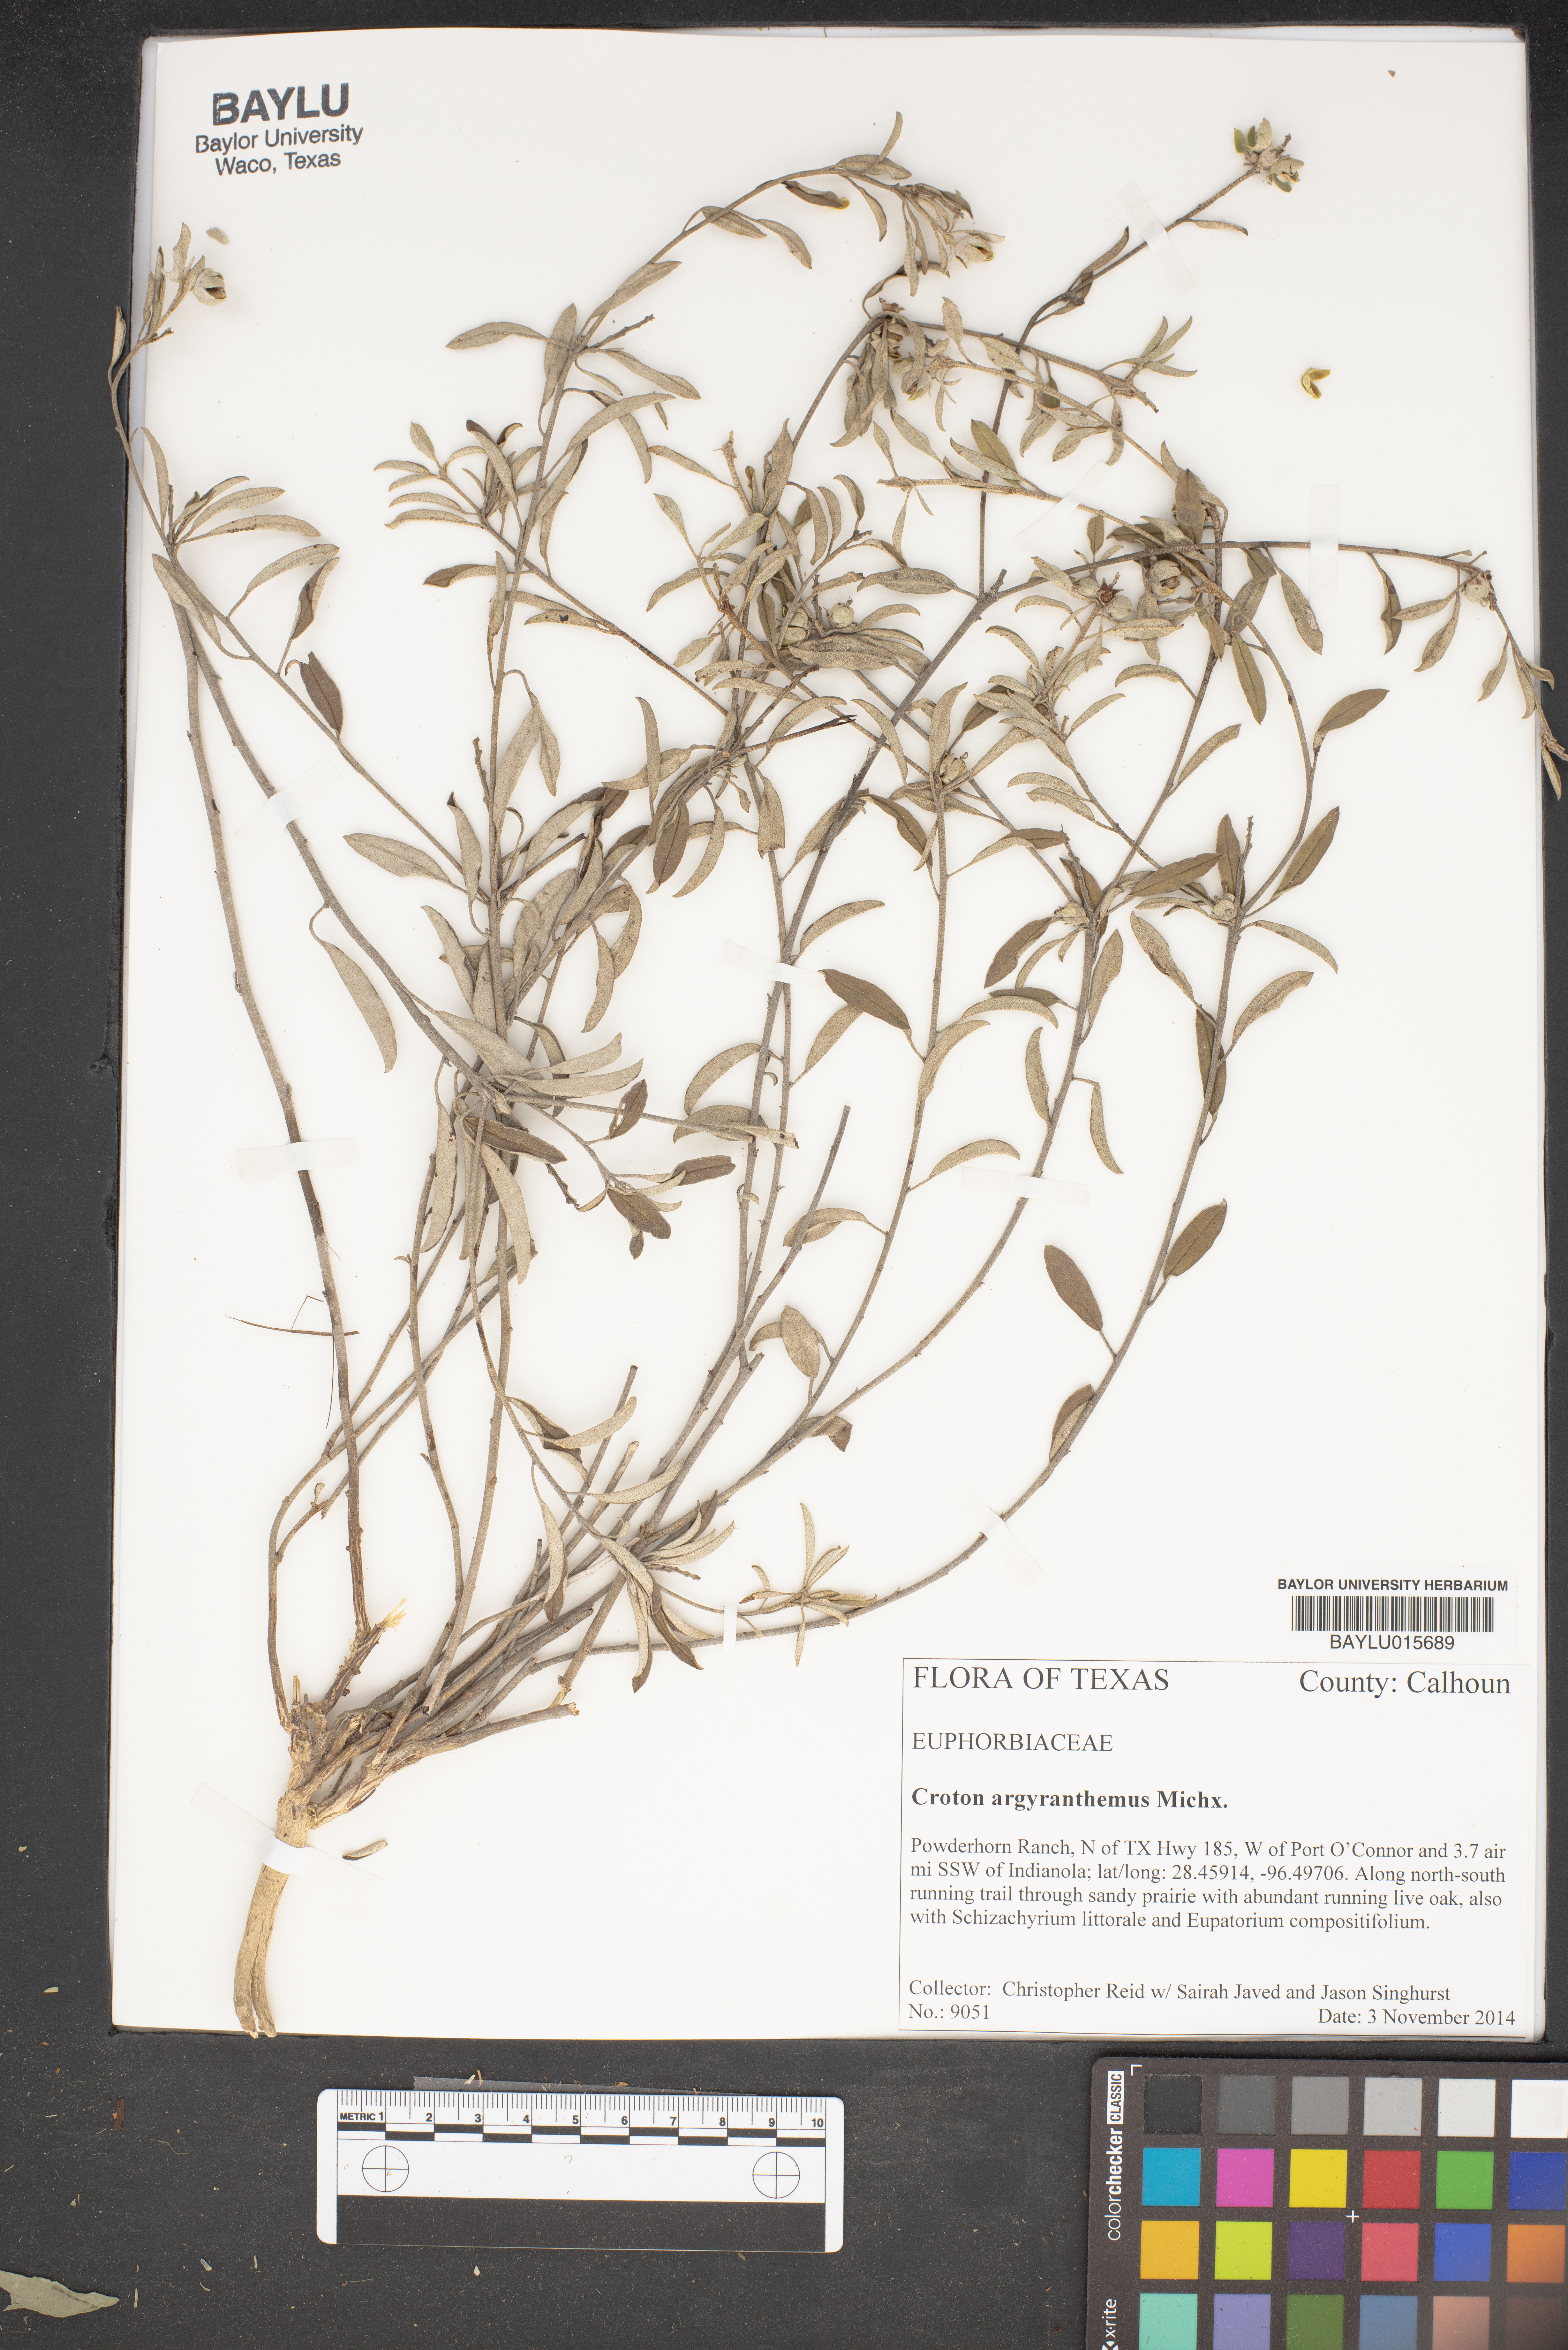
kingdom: Plantae
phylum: Tracheophyta
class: Magnoliopsida
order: Malpighiales
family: Euphorbiaceae
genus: Croton
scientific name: Croton argyranthemus
